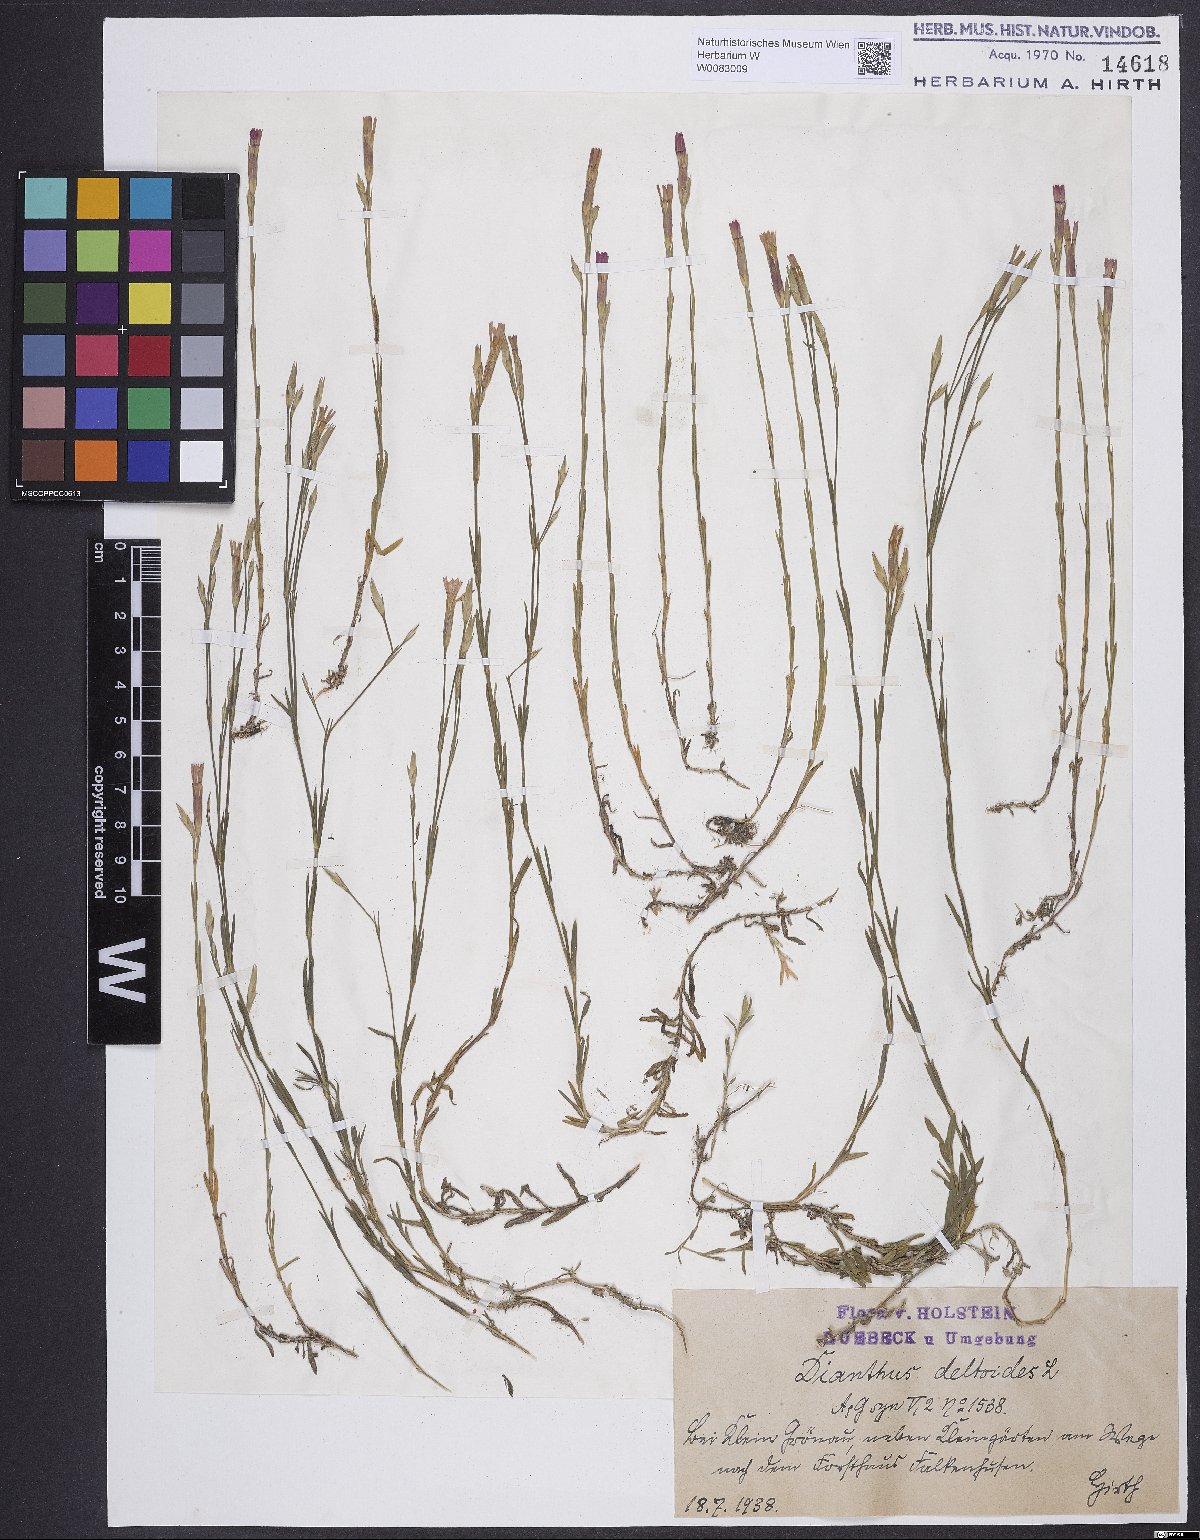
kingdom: Plantae
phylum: Tracheophyta
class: Magnoliopsida
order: Caryophyllales
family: Caryophyllaceae
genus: Dianthus
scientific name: Dianthus deltoides
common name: Maiden pink
